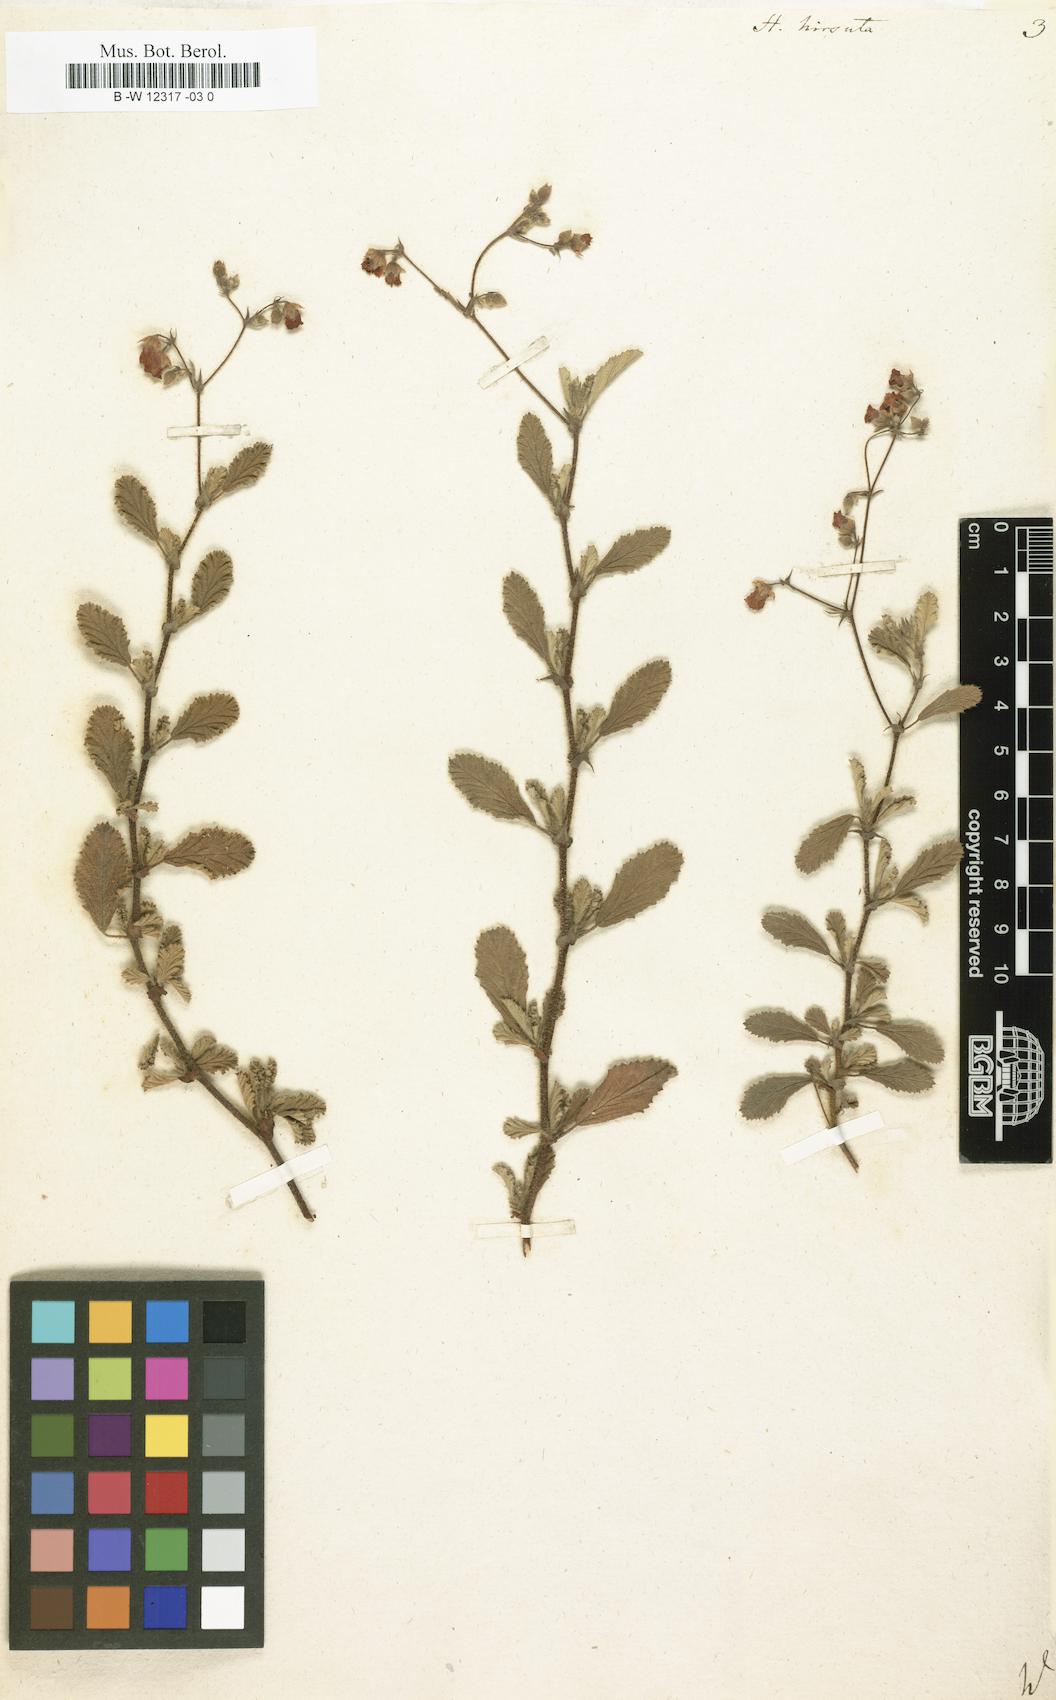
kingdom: Plantae
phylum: Tracheophyta
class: Magnoliopsida
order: Malvales
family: Malvaceae
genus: Hermannia
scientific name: Hermannia
